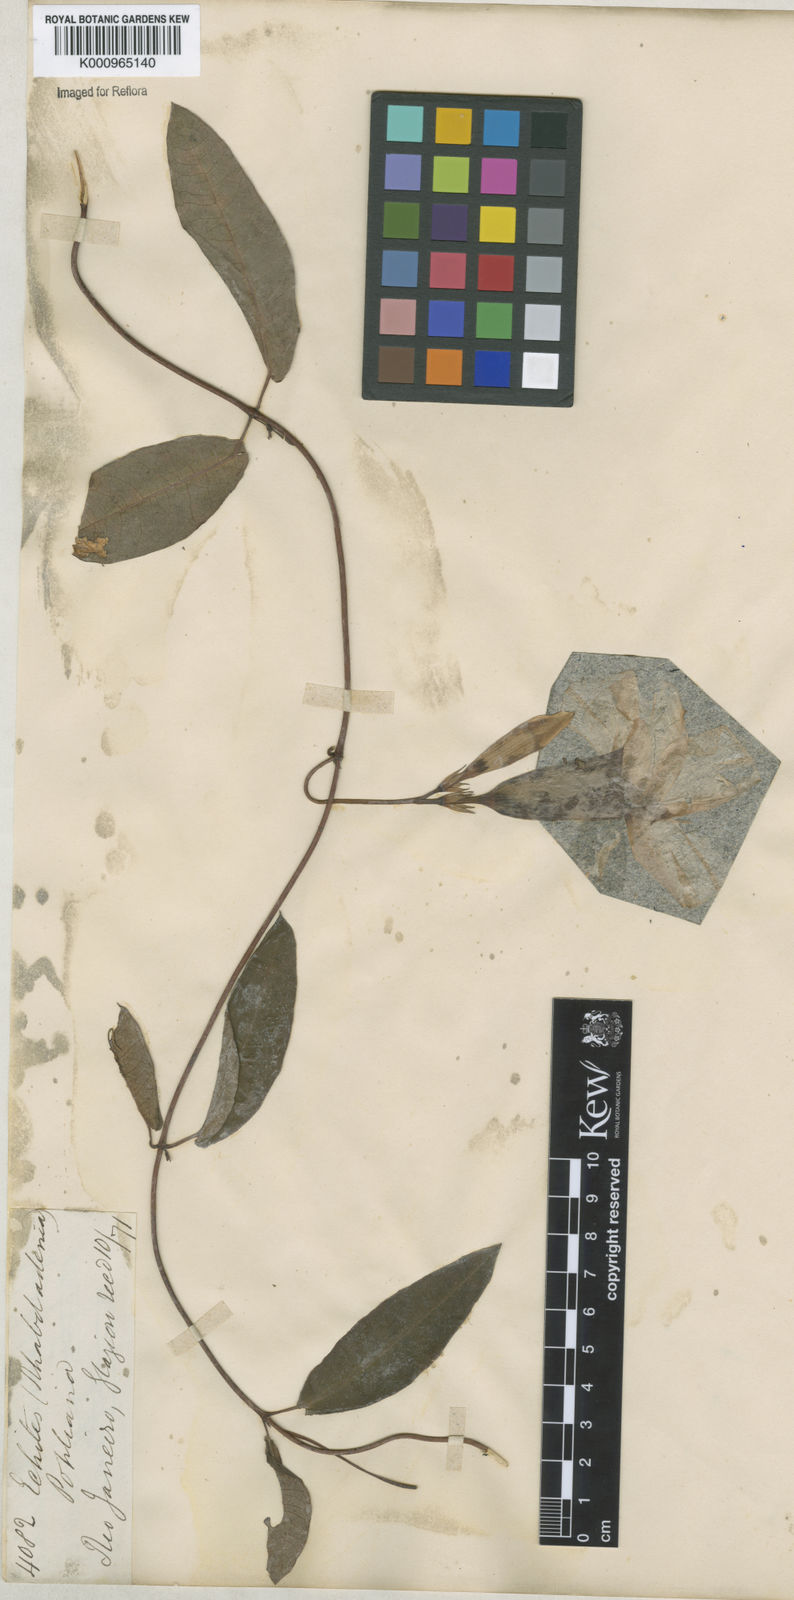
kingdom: Plantae
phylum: Tracheophyta
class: Magnoliopsida
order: Gentianales
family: Apocynaceae
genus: Rhabdadenia
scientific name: Rhabdadenia madida
